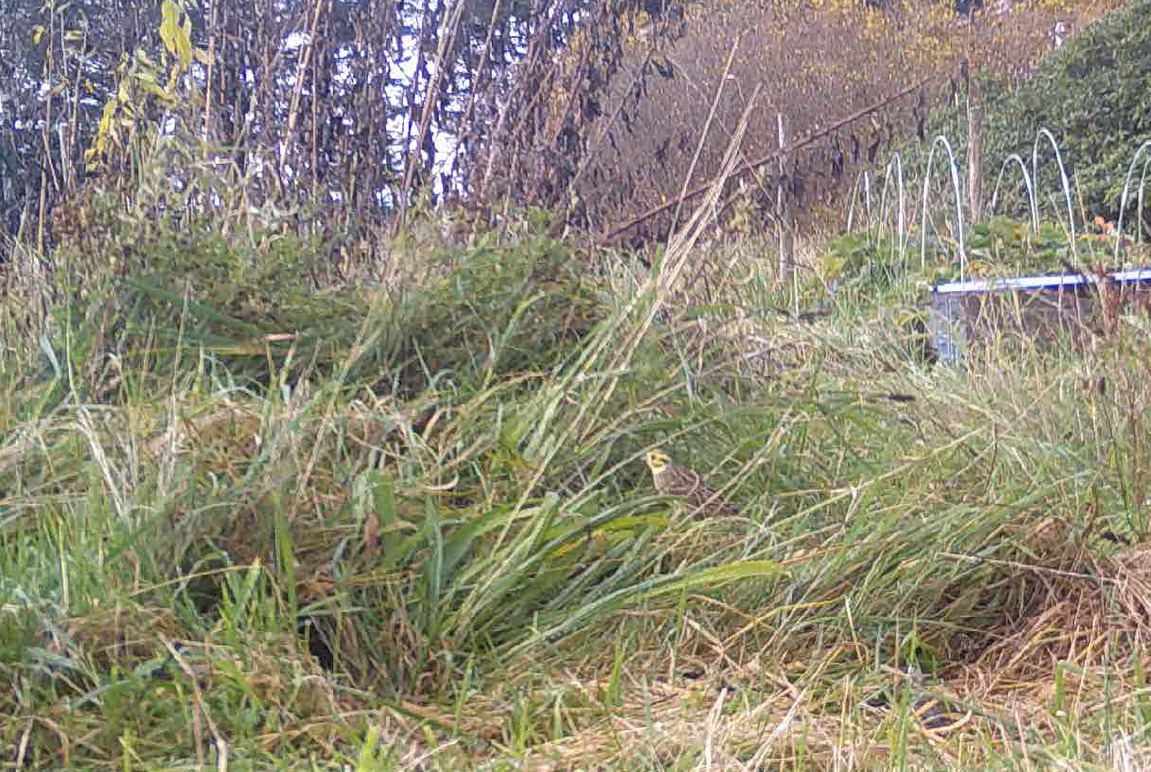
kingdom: Animalia
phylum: Chordata
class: Aves
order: Passeriformes
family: Emberizidae
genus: Emberiza
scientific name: Emberiza citrinella
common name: Gulspurv
